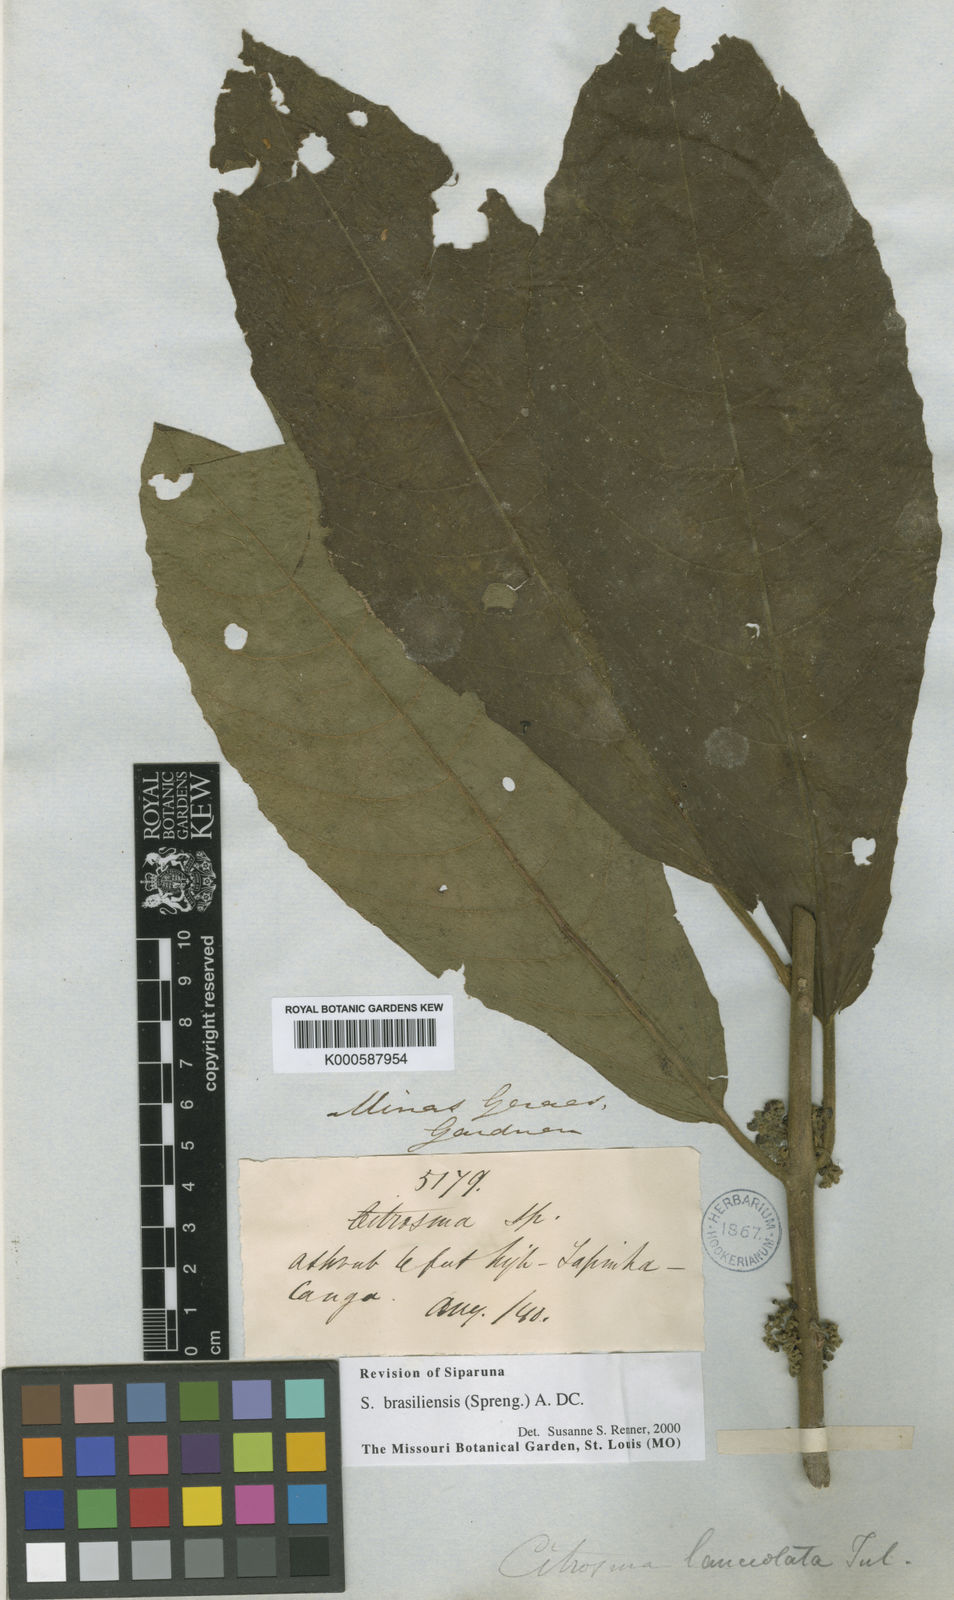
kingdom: Plantae
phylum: Tracheophyta
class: Magnoliopsida
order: Laurales
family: Siparunaceae
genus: Siparuna
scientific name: Siparuna brasiliensis
